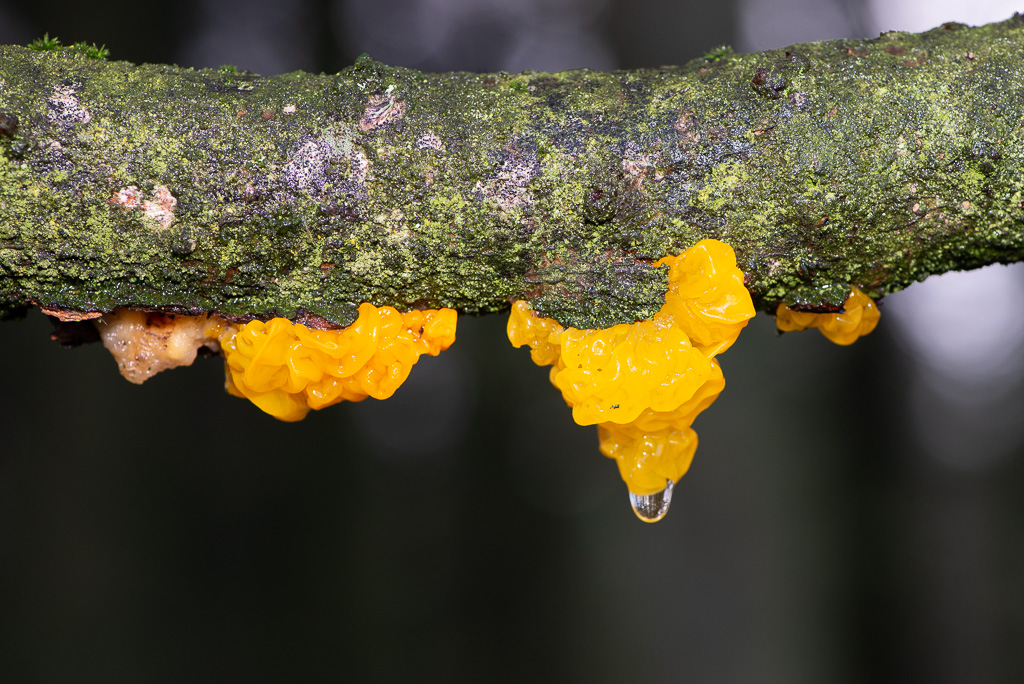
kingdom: Fungi
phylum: Basidiomycota
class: Tremellomycetes
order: Tremellales
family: Tremellaceae
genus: Tremella
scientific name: Tremella mesenterica
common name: gul bævresvamp
